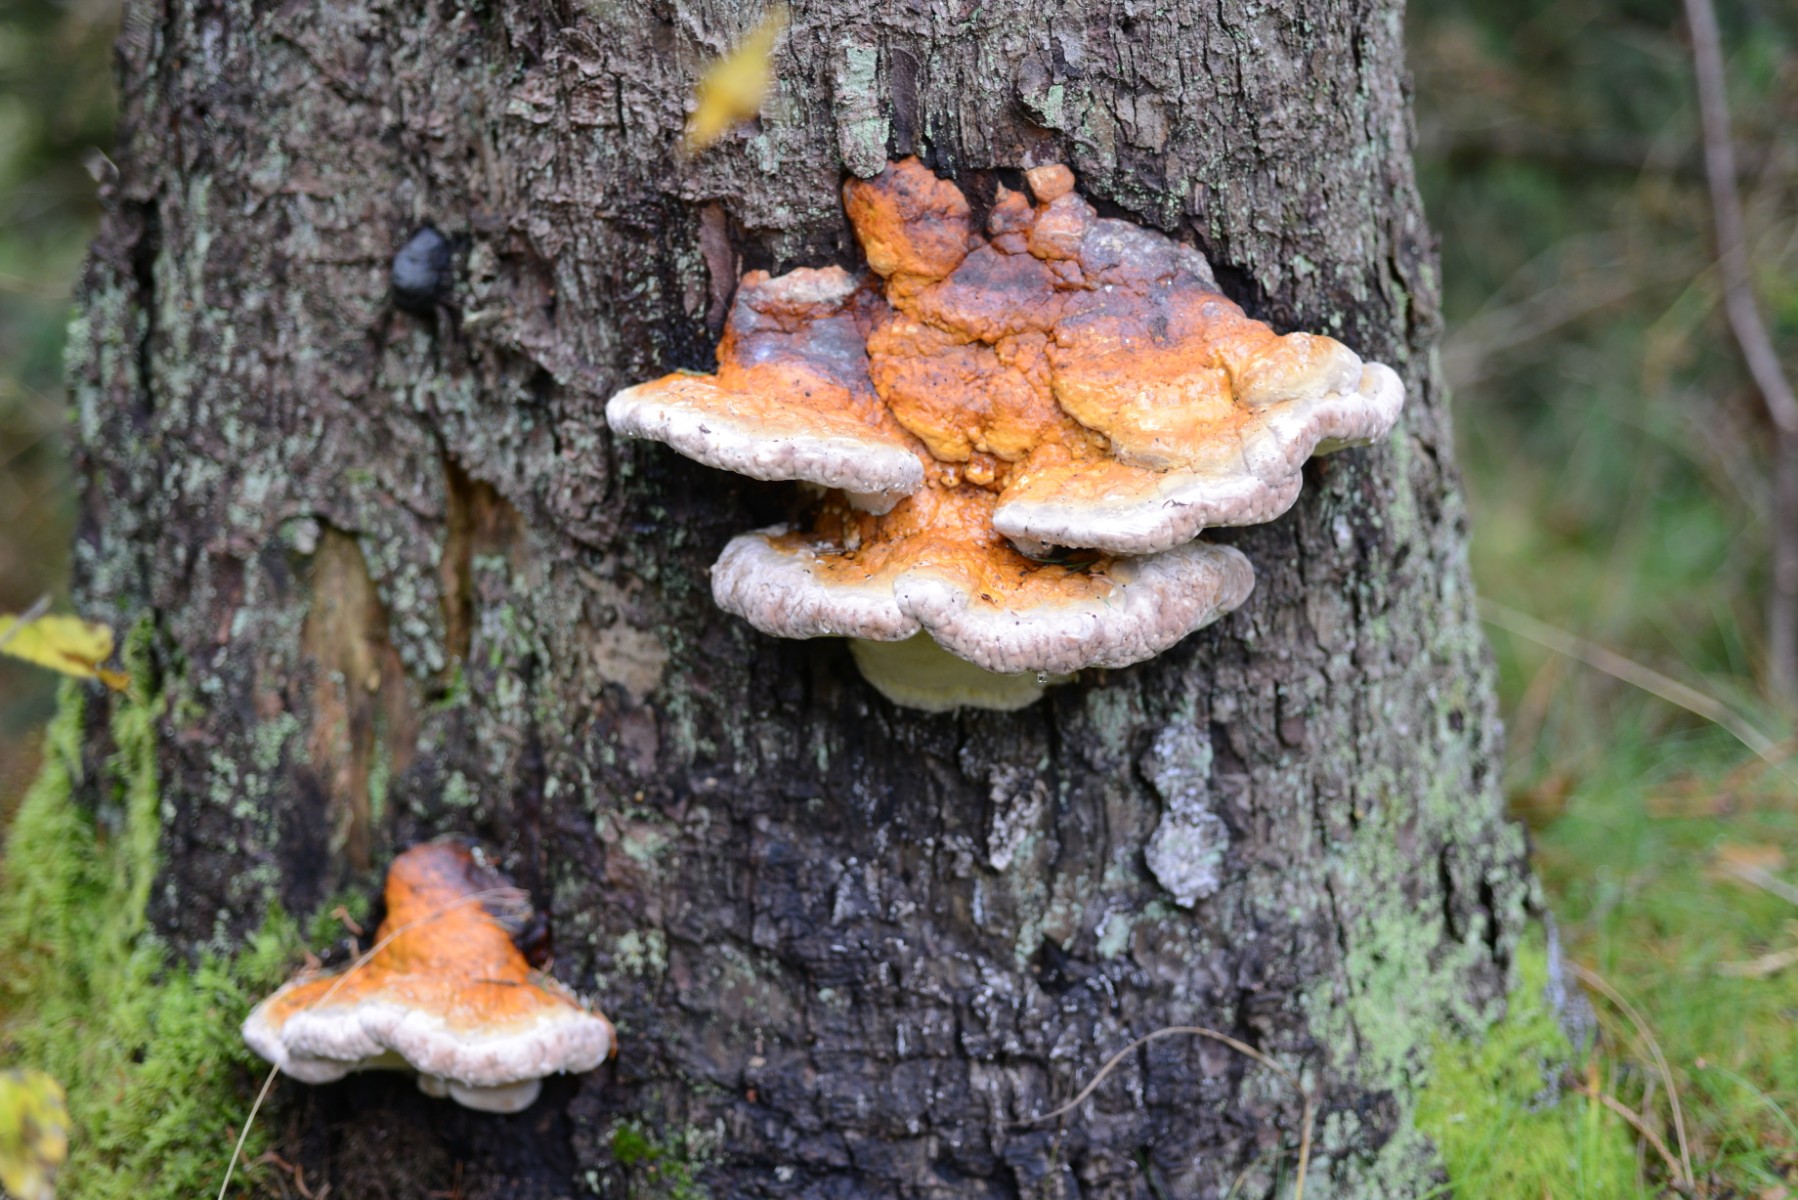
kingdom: Fungi
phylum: Basidiomycota
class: Agaricomycetes
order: Polyporales
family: Fomitopsidaceae
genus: Fomitopsis
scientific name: Fomitopsis pinicola
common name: randbæltet hovporesvamp
